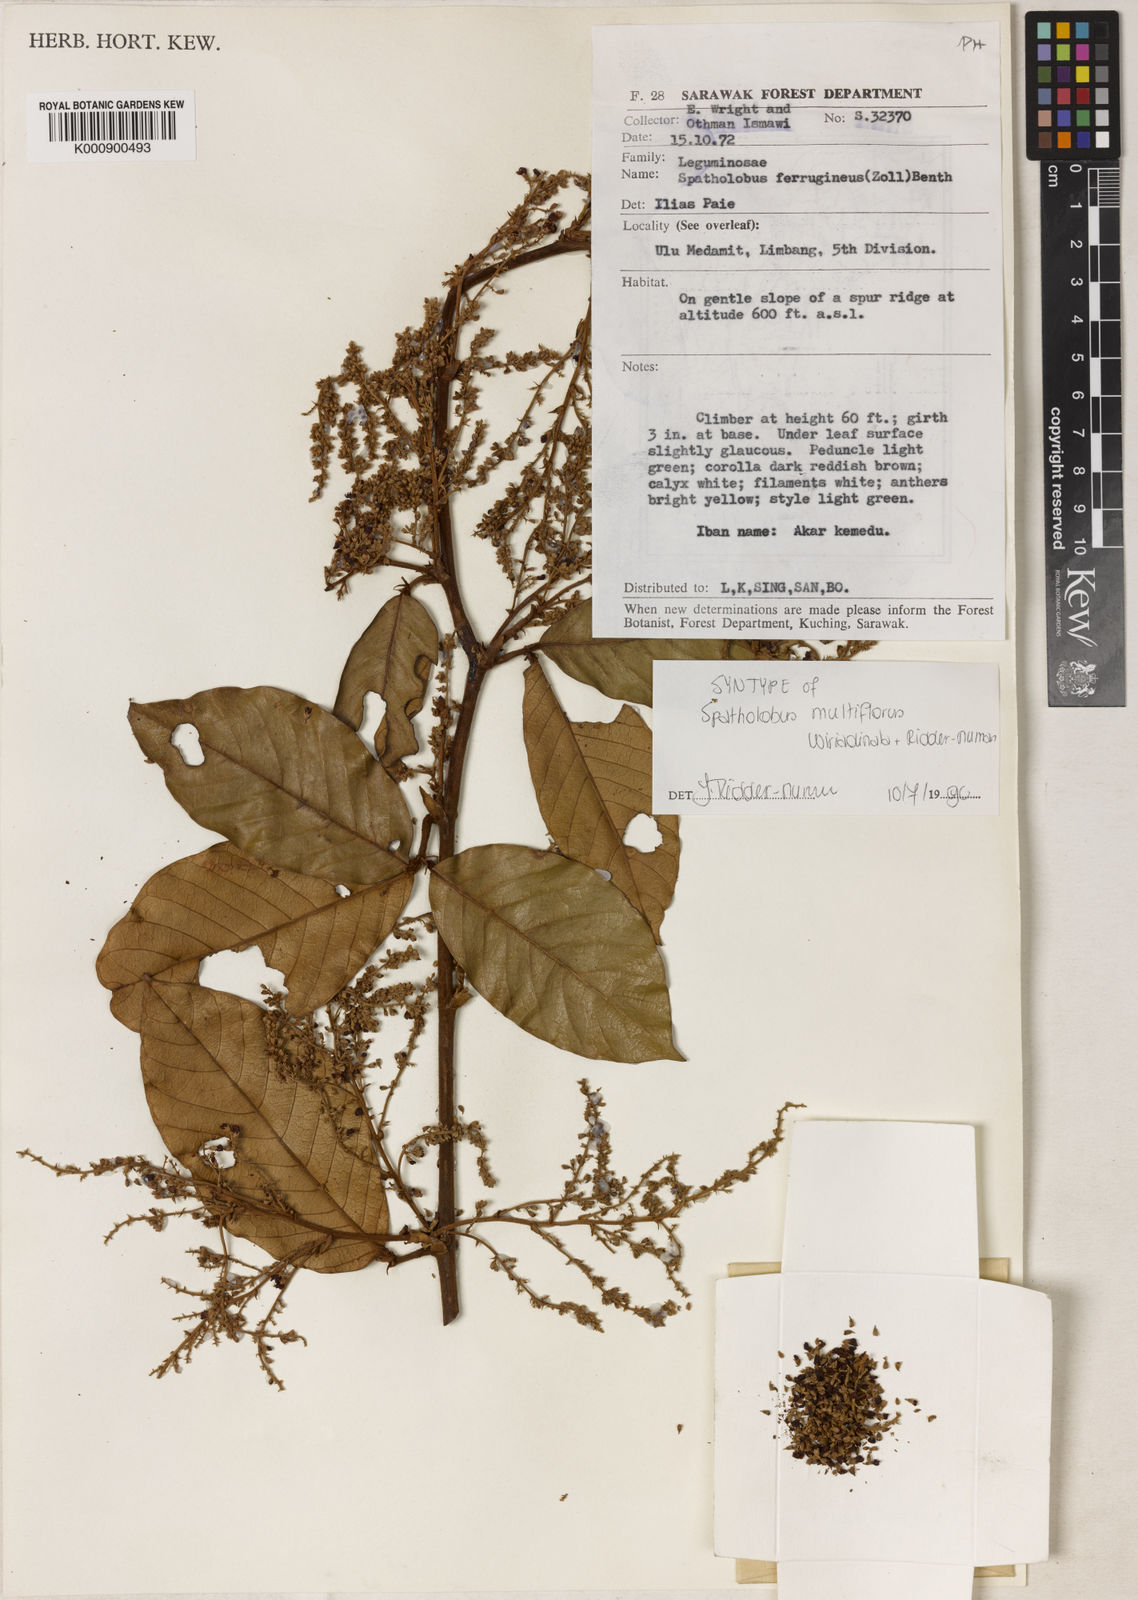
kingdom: Plantae
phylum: Tracheophyta
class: Magnoliopsida
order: Fabales
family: Fabaceae
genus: Spatholobus
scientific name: Spatholobus multiflorus
